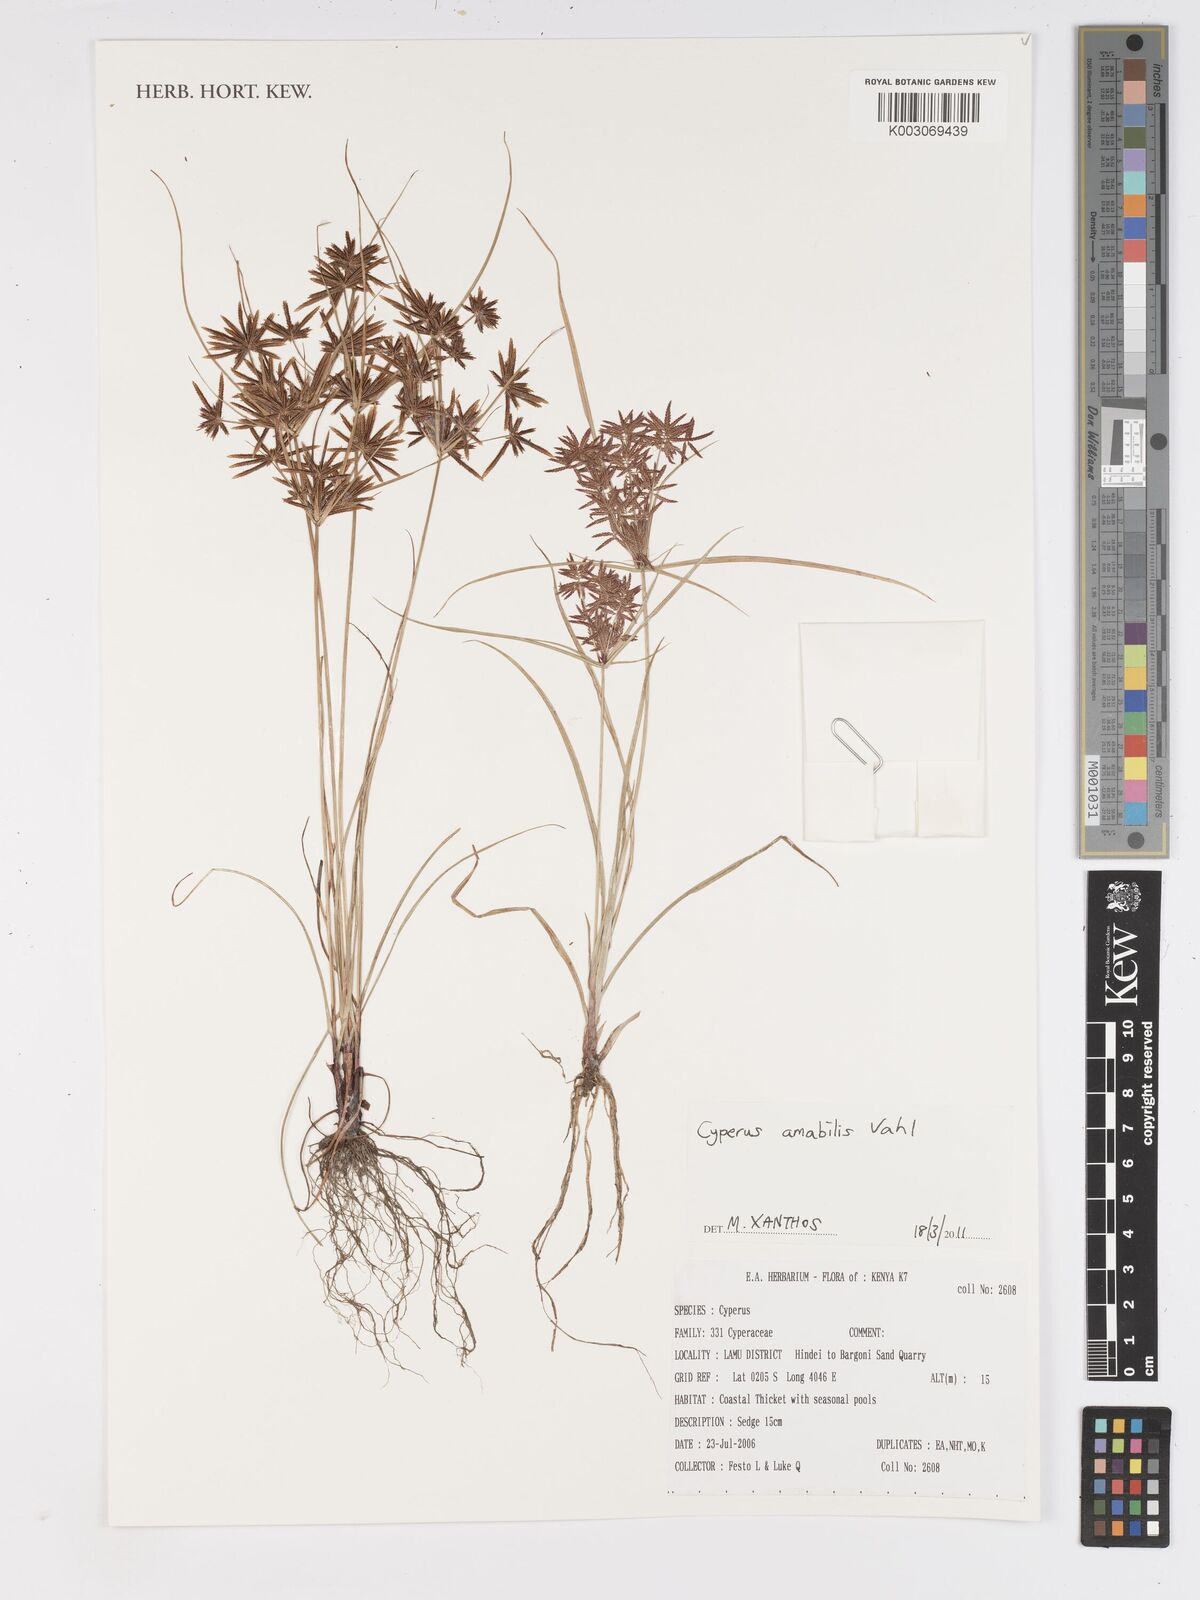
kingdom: Plantae
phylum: Tracheophyta
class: Liliopsida
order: Poales
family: Cyperaceae
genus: Cyperus
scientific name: Cyperus amabilis
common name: Foothill flat sedge
